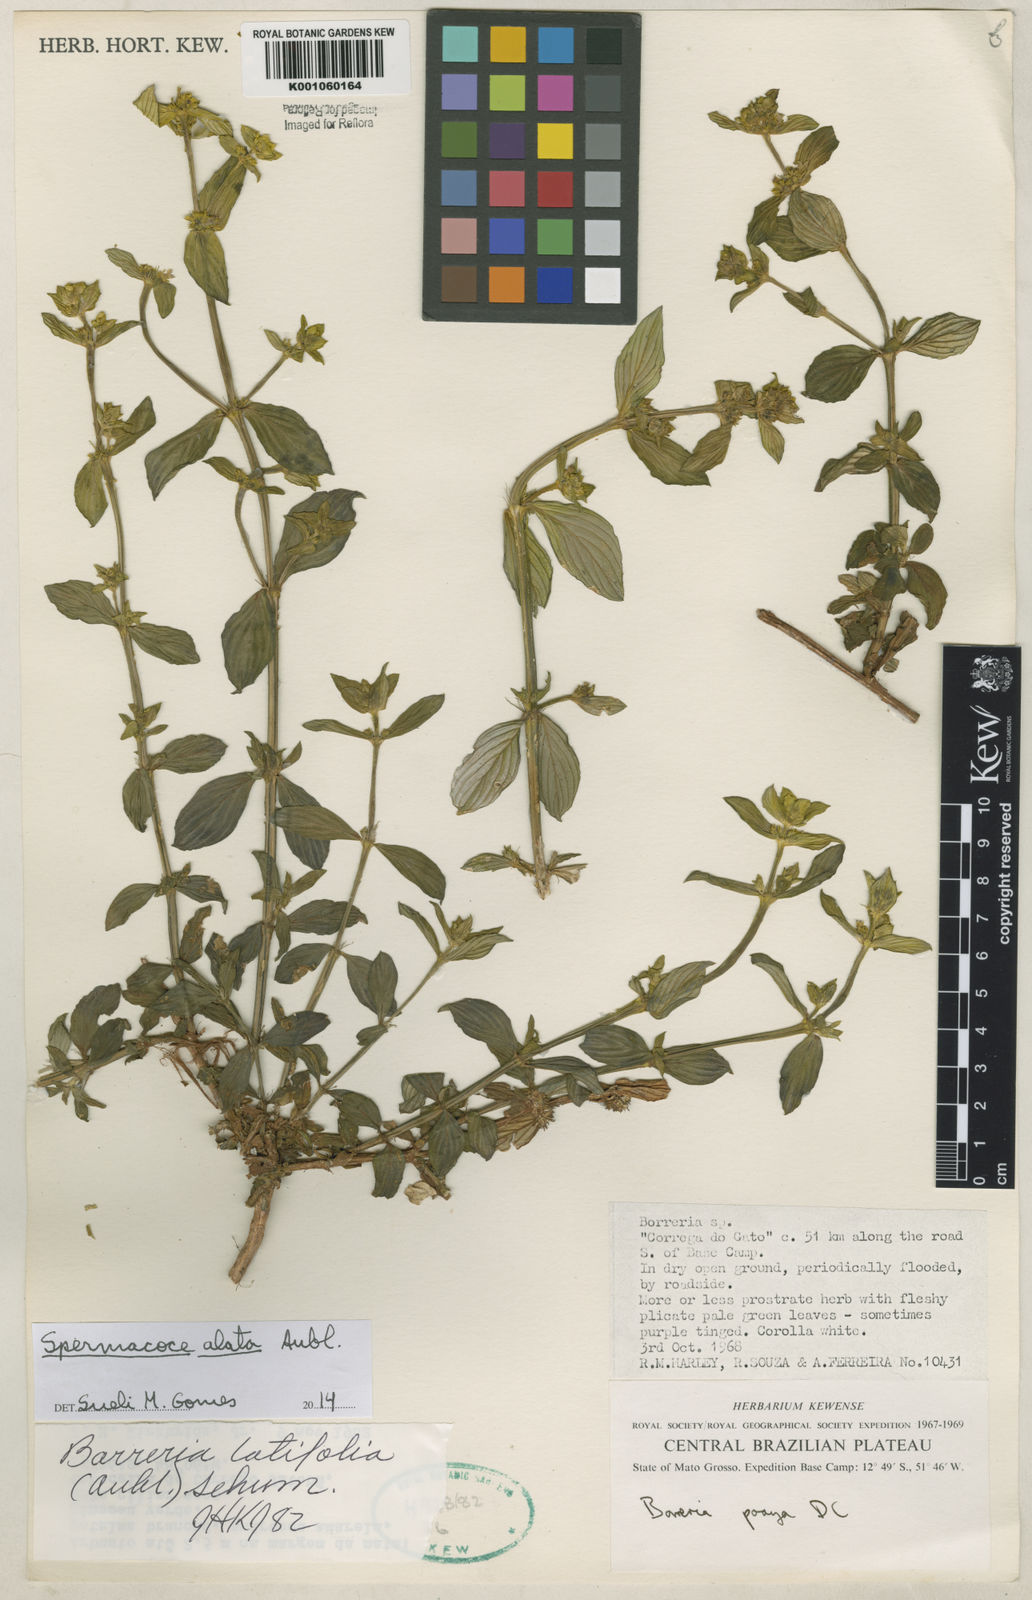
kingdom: Plantae
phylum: Tracheophyta
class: Magnoliopsida
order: Gentianales
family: Rubiaceae
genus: Spermacoce
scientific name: Spermacoce
